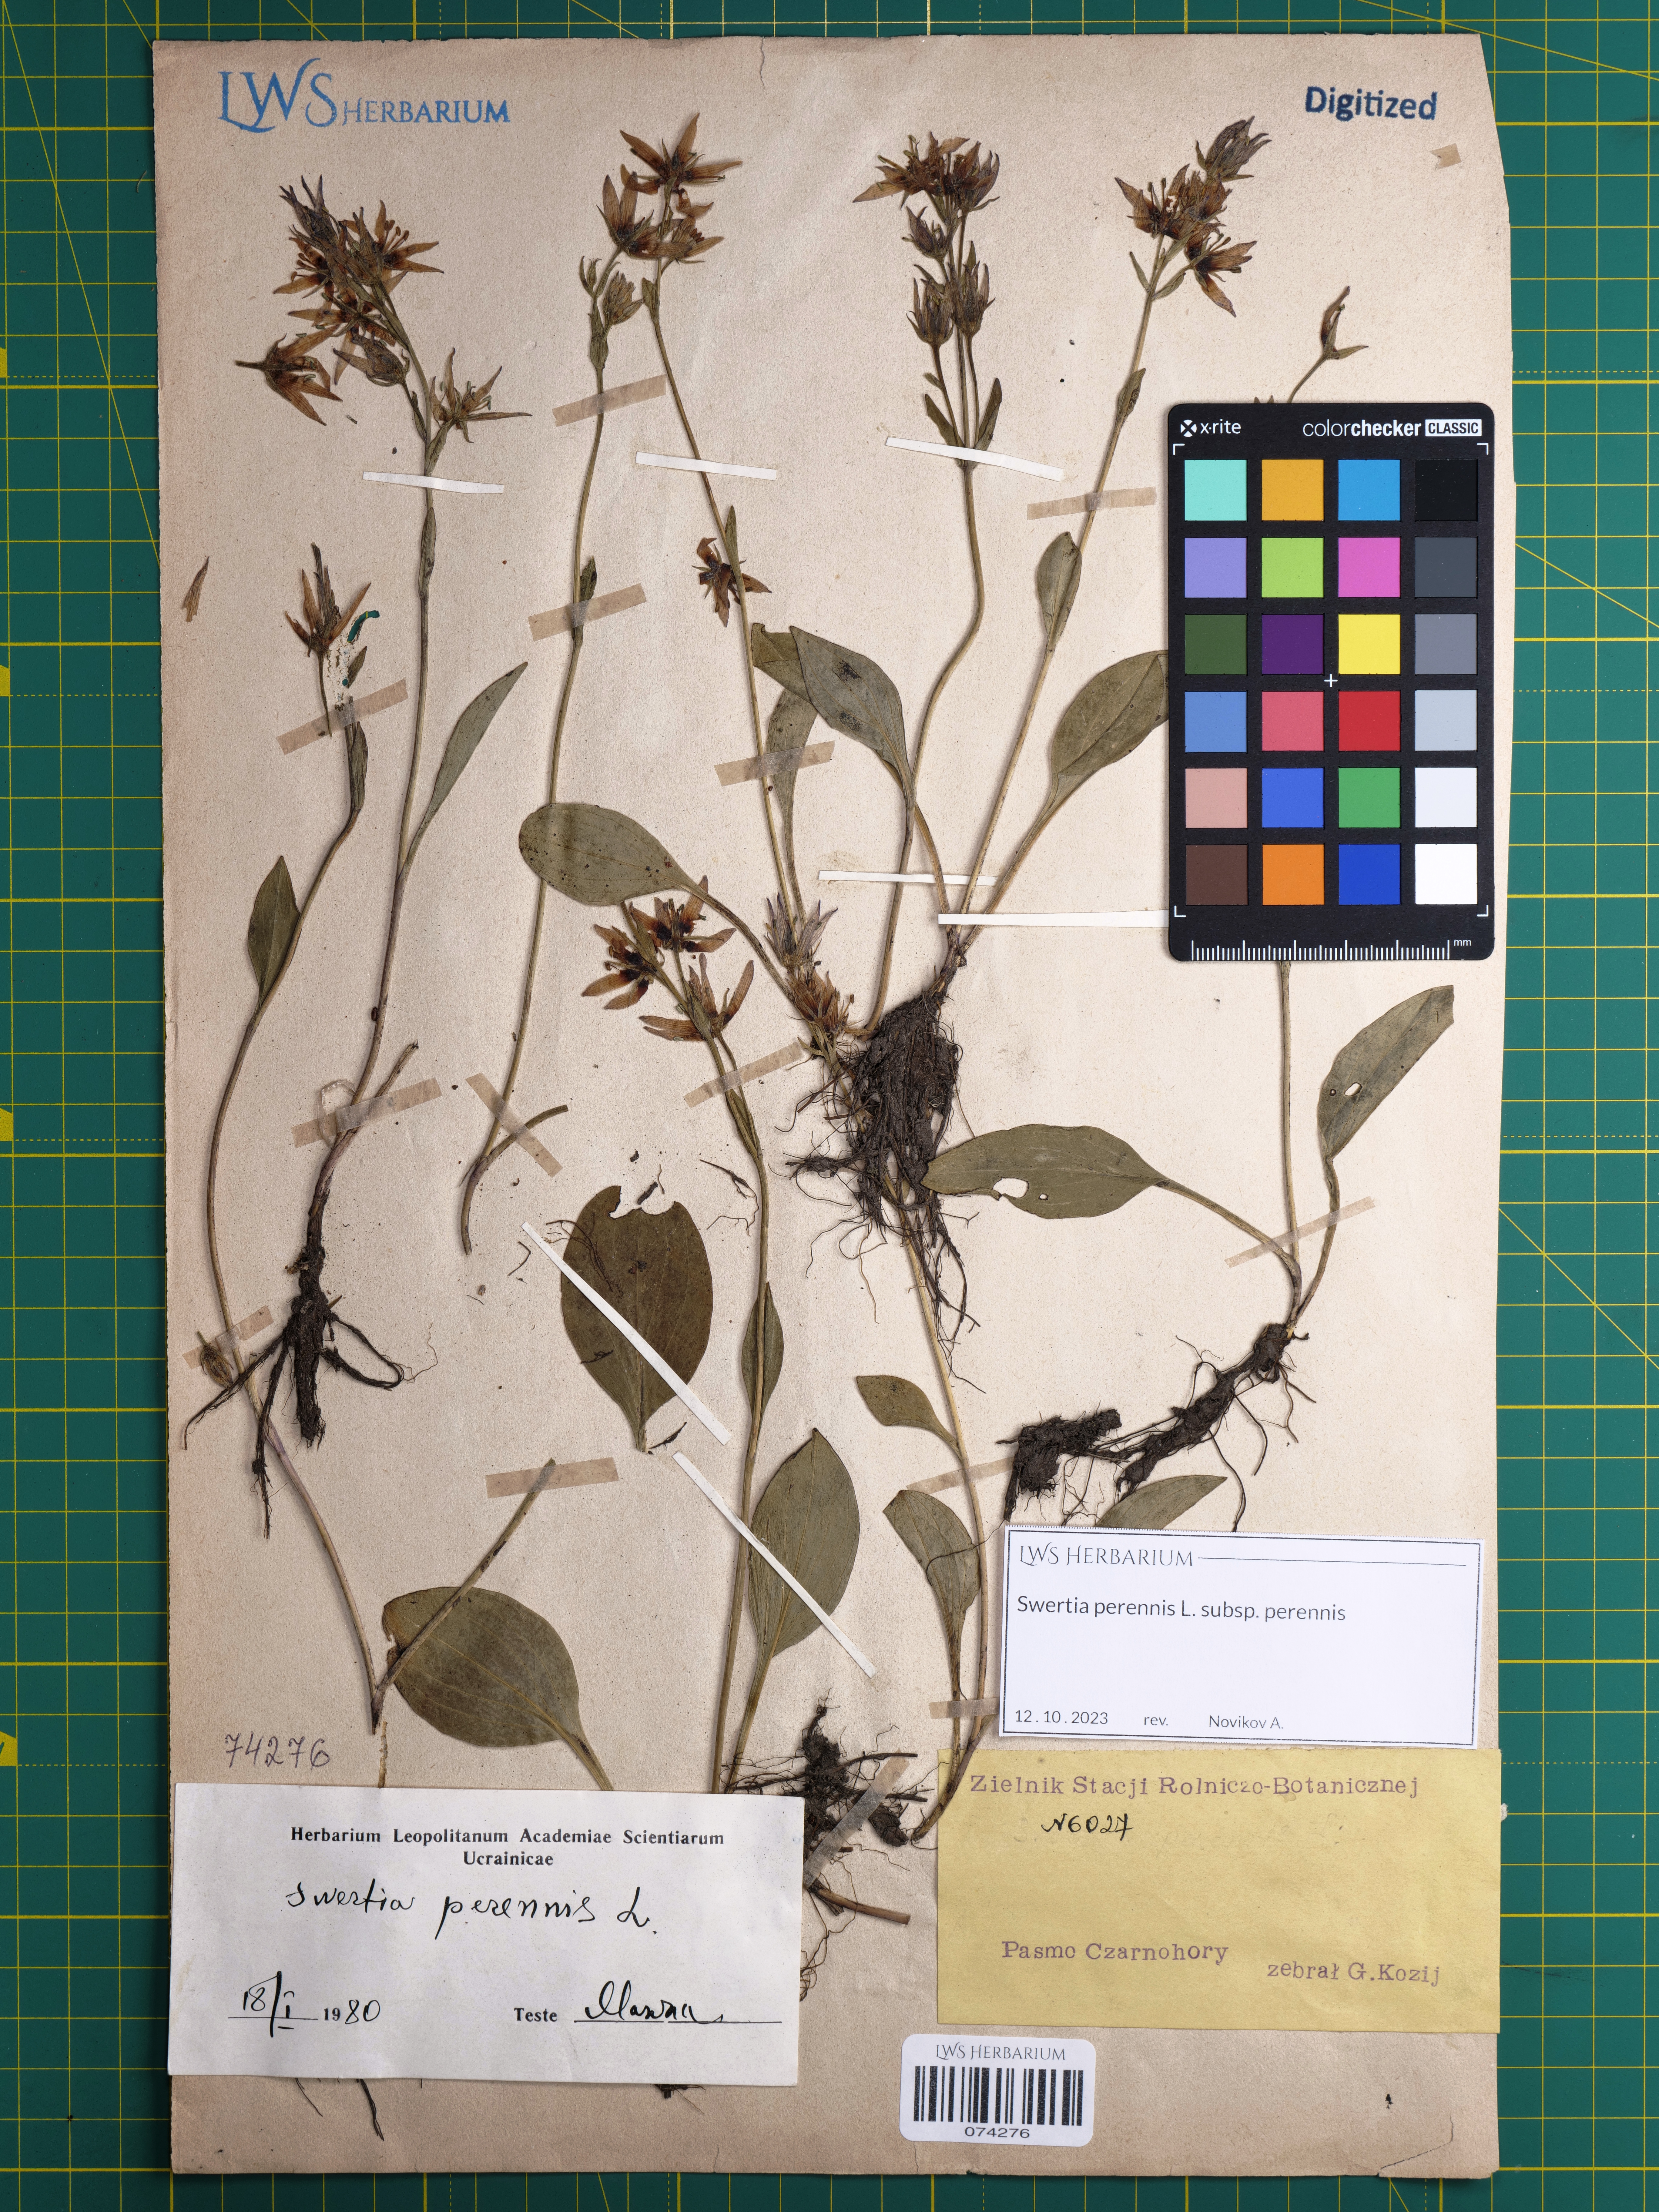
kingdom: Plantae
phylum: Tracheophyta
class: Magnoliopsida
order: Gentianales
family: Gentianaceae
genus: Swertia
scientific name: Swertia perennis
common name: Alpine bog swertia
